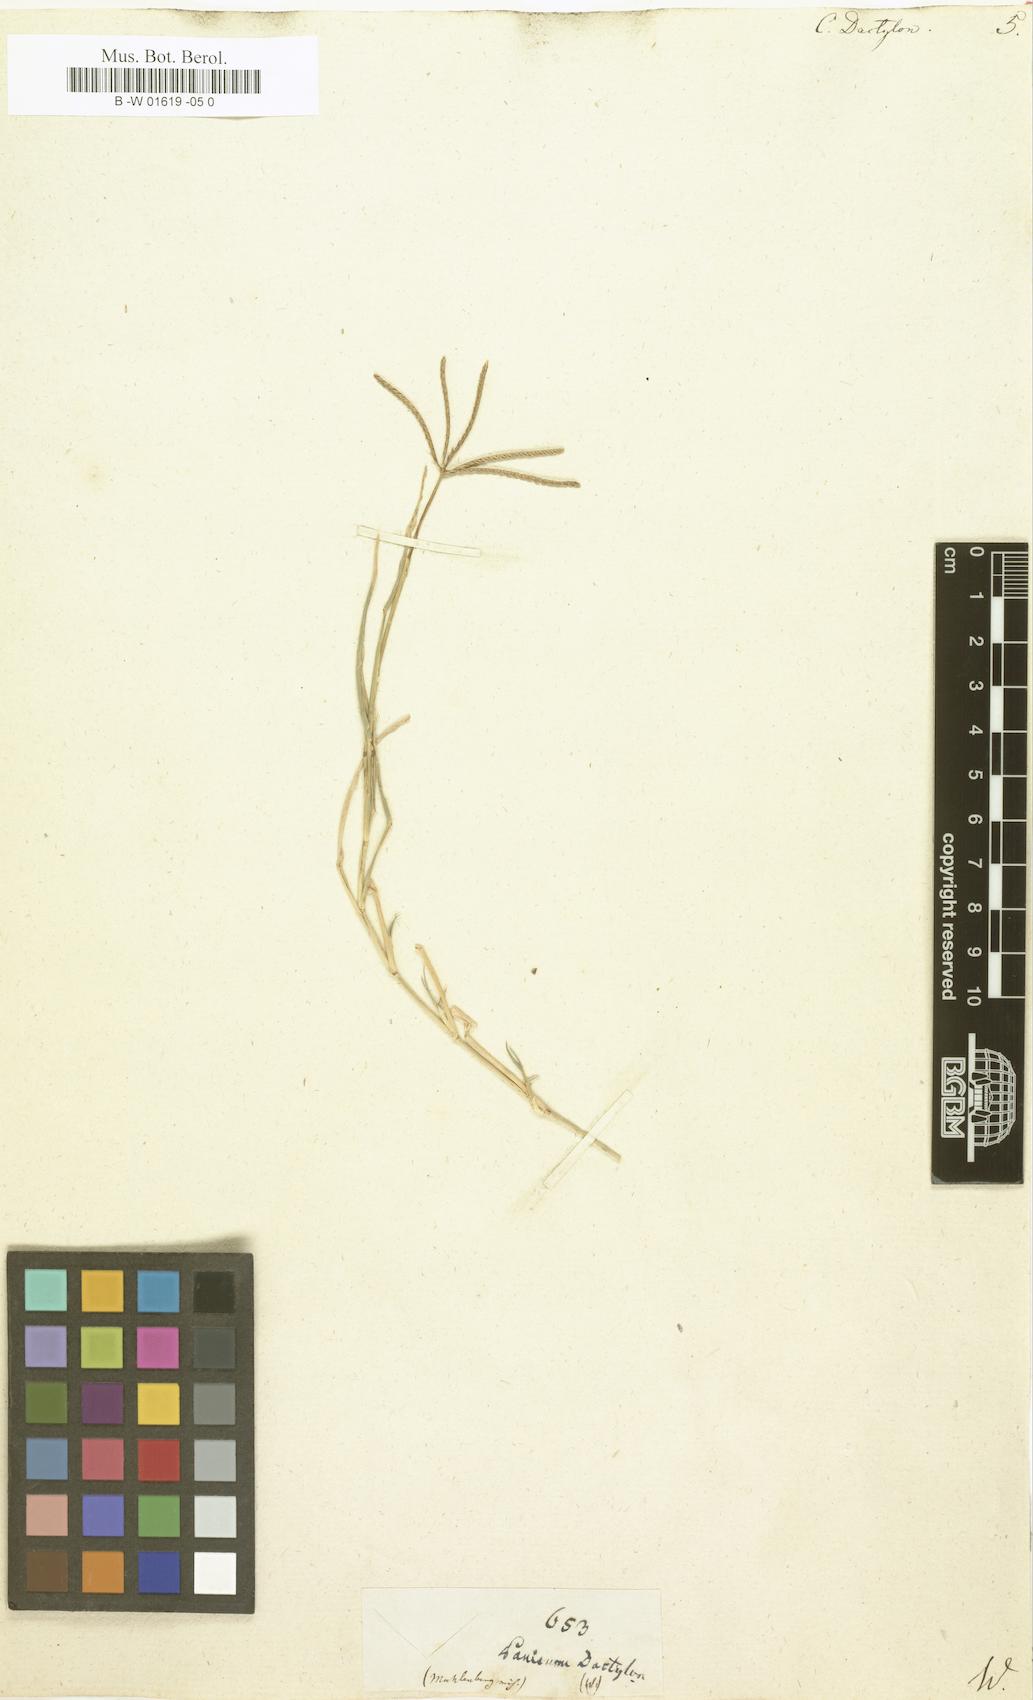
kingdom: Plantae
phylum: Tracheophyta
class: Liliopsida
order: Poales
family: Poaceae
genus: Cynodon
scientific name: Cynodon dactylon
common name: Bermuda grass
